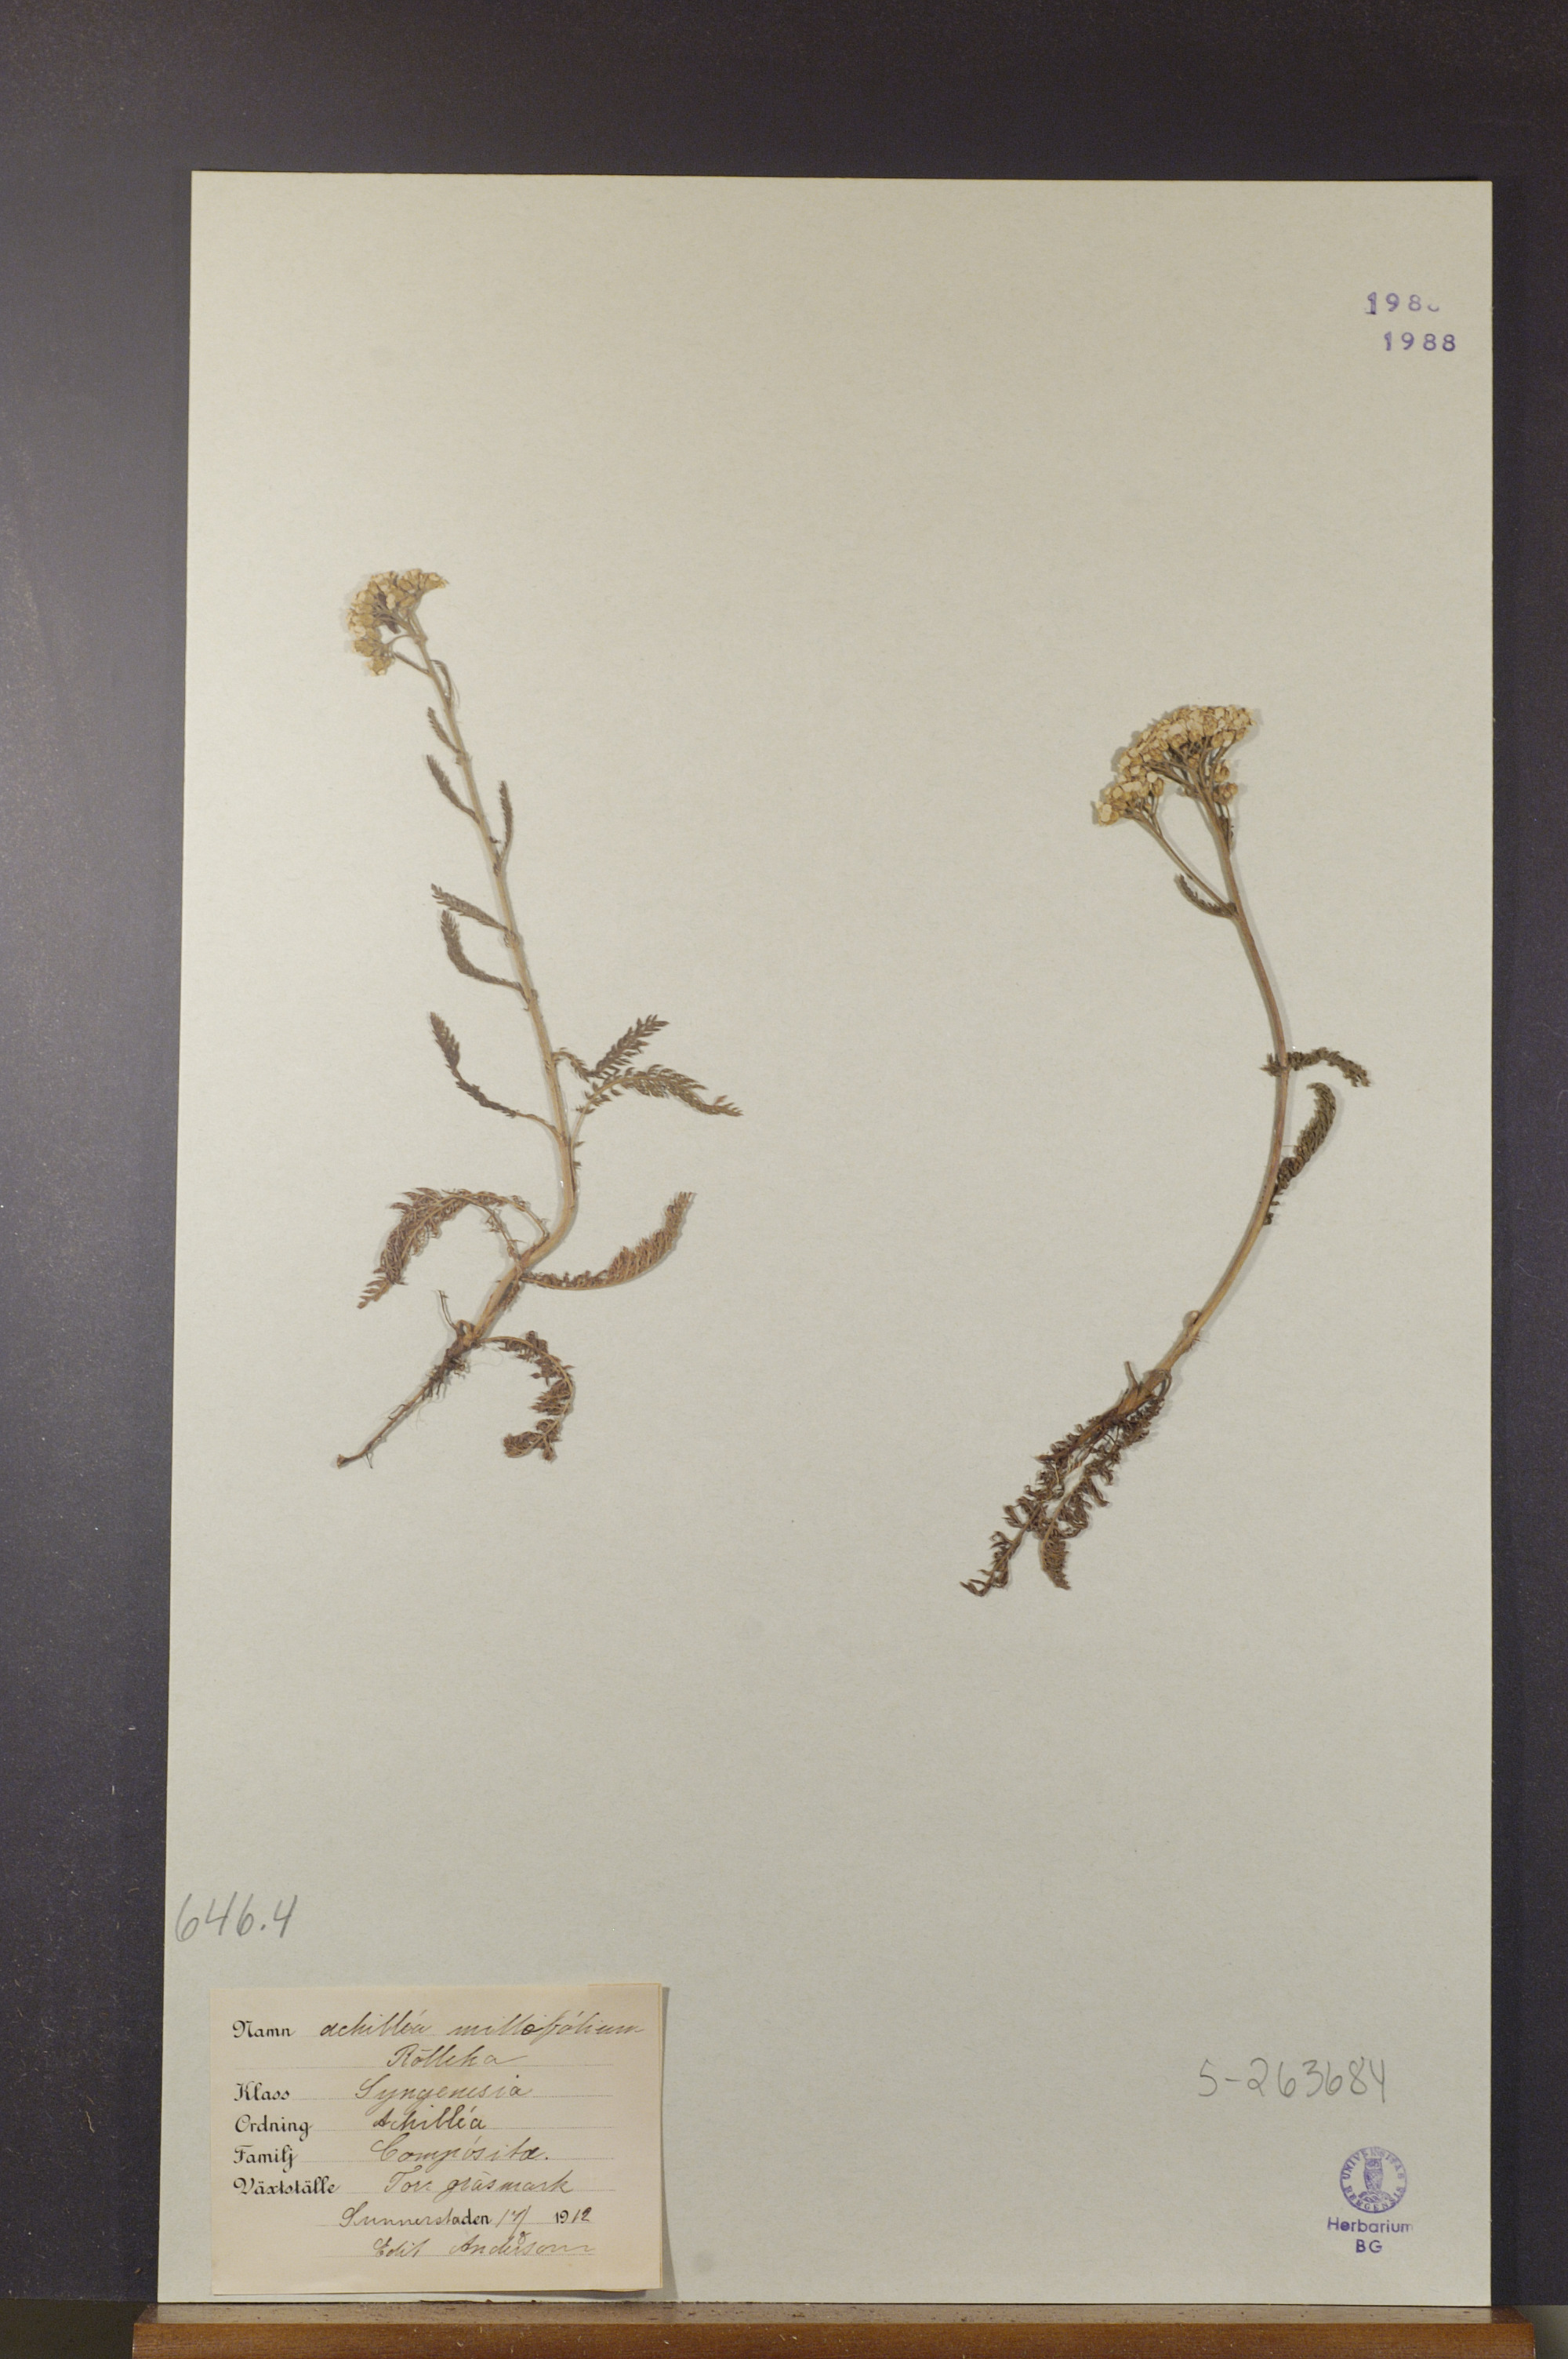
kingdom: Plantae
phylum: Tracheophyta
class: Magnoliopsida
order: Asterales
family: Asteraceae
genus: Achillea
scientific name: Achillea millefolium
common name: Yarrow
